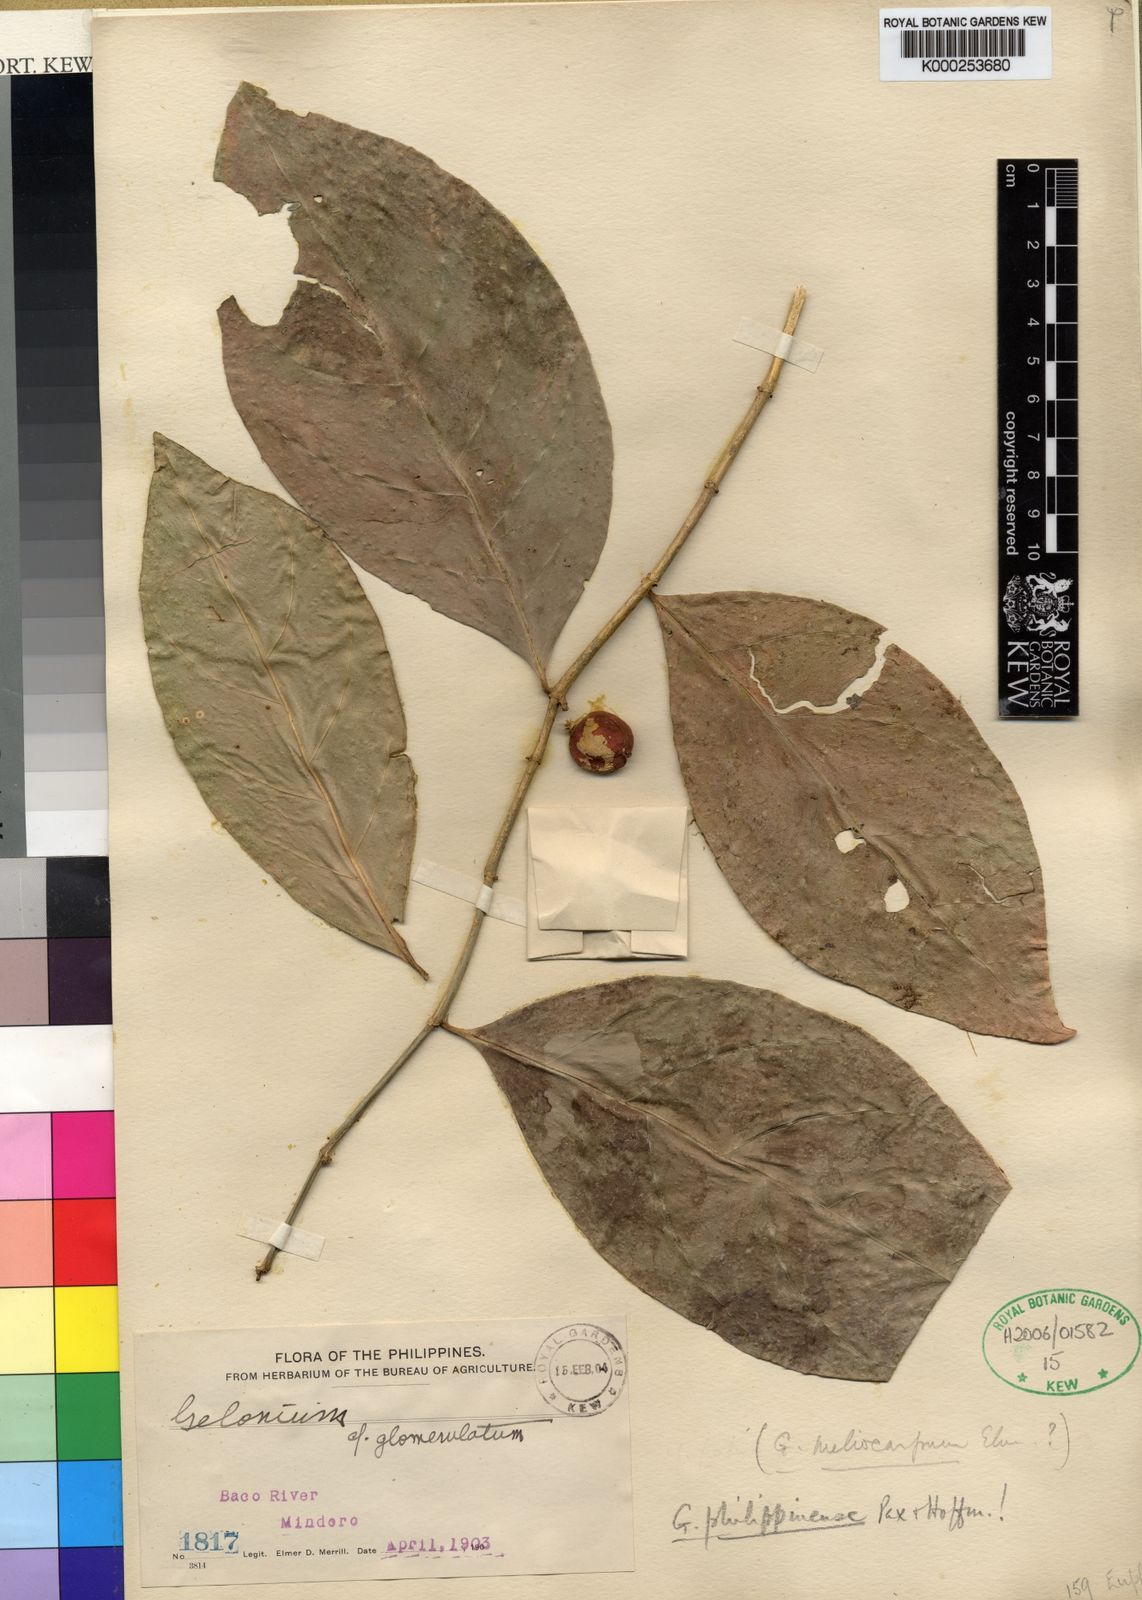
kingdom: Plantae
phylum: Tracheophyta
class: Magnoliopsida
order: Malpighiales
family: Euphorbiaceae
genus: Suregada
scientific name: Suregada glomerulata
